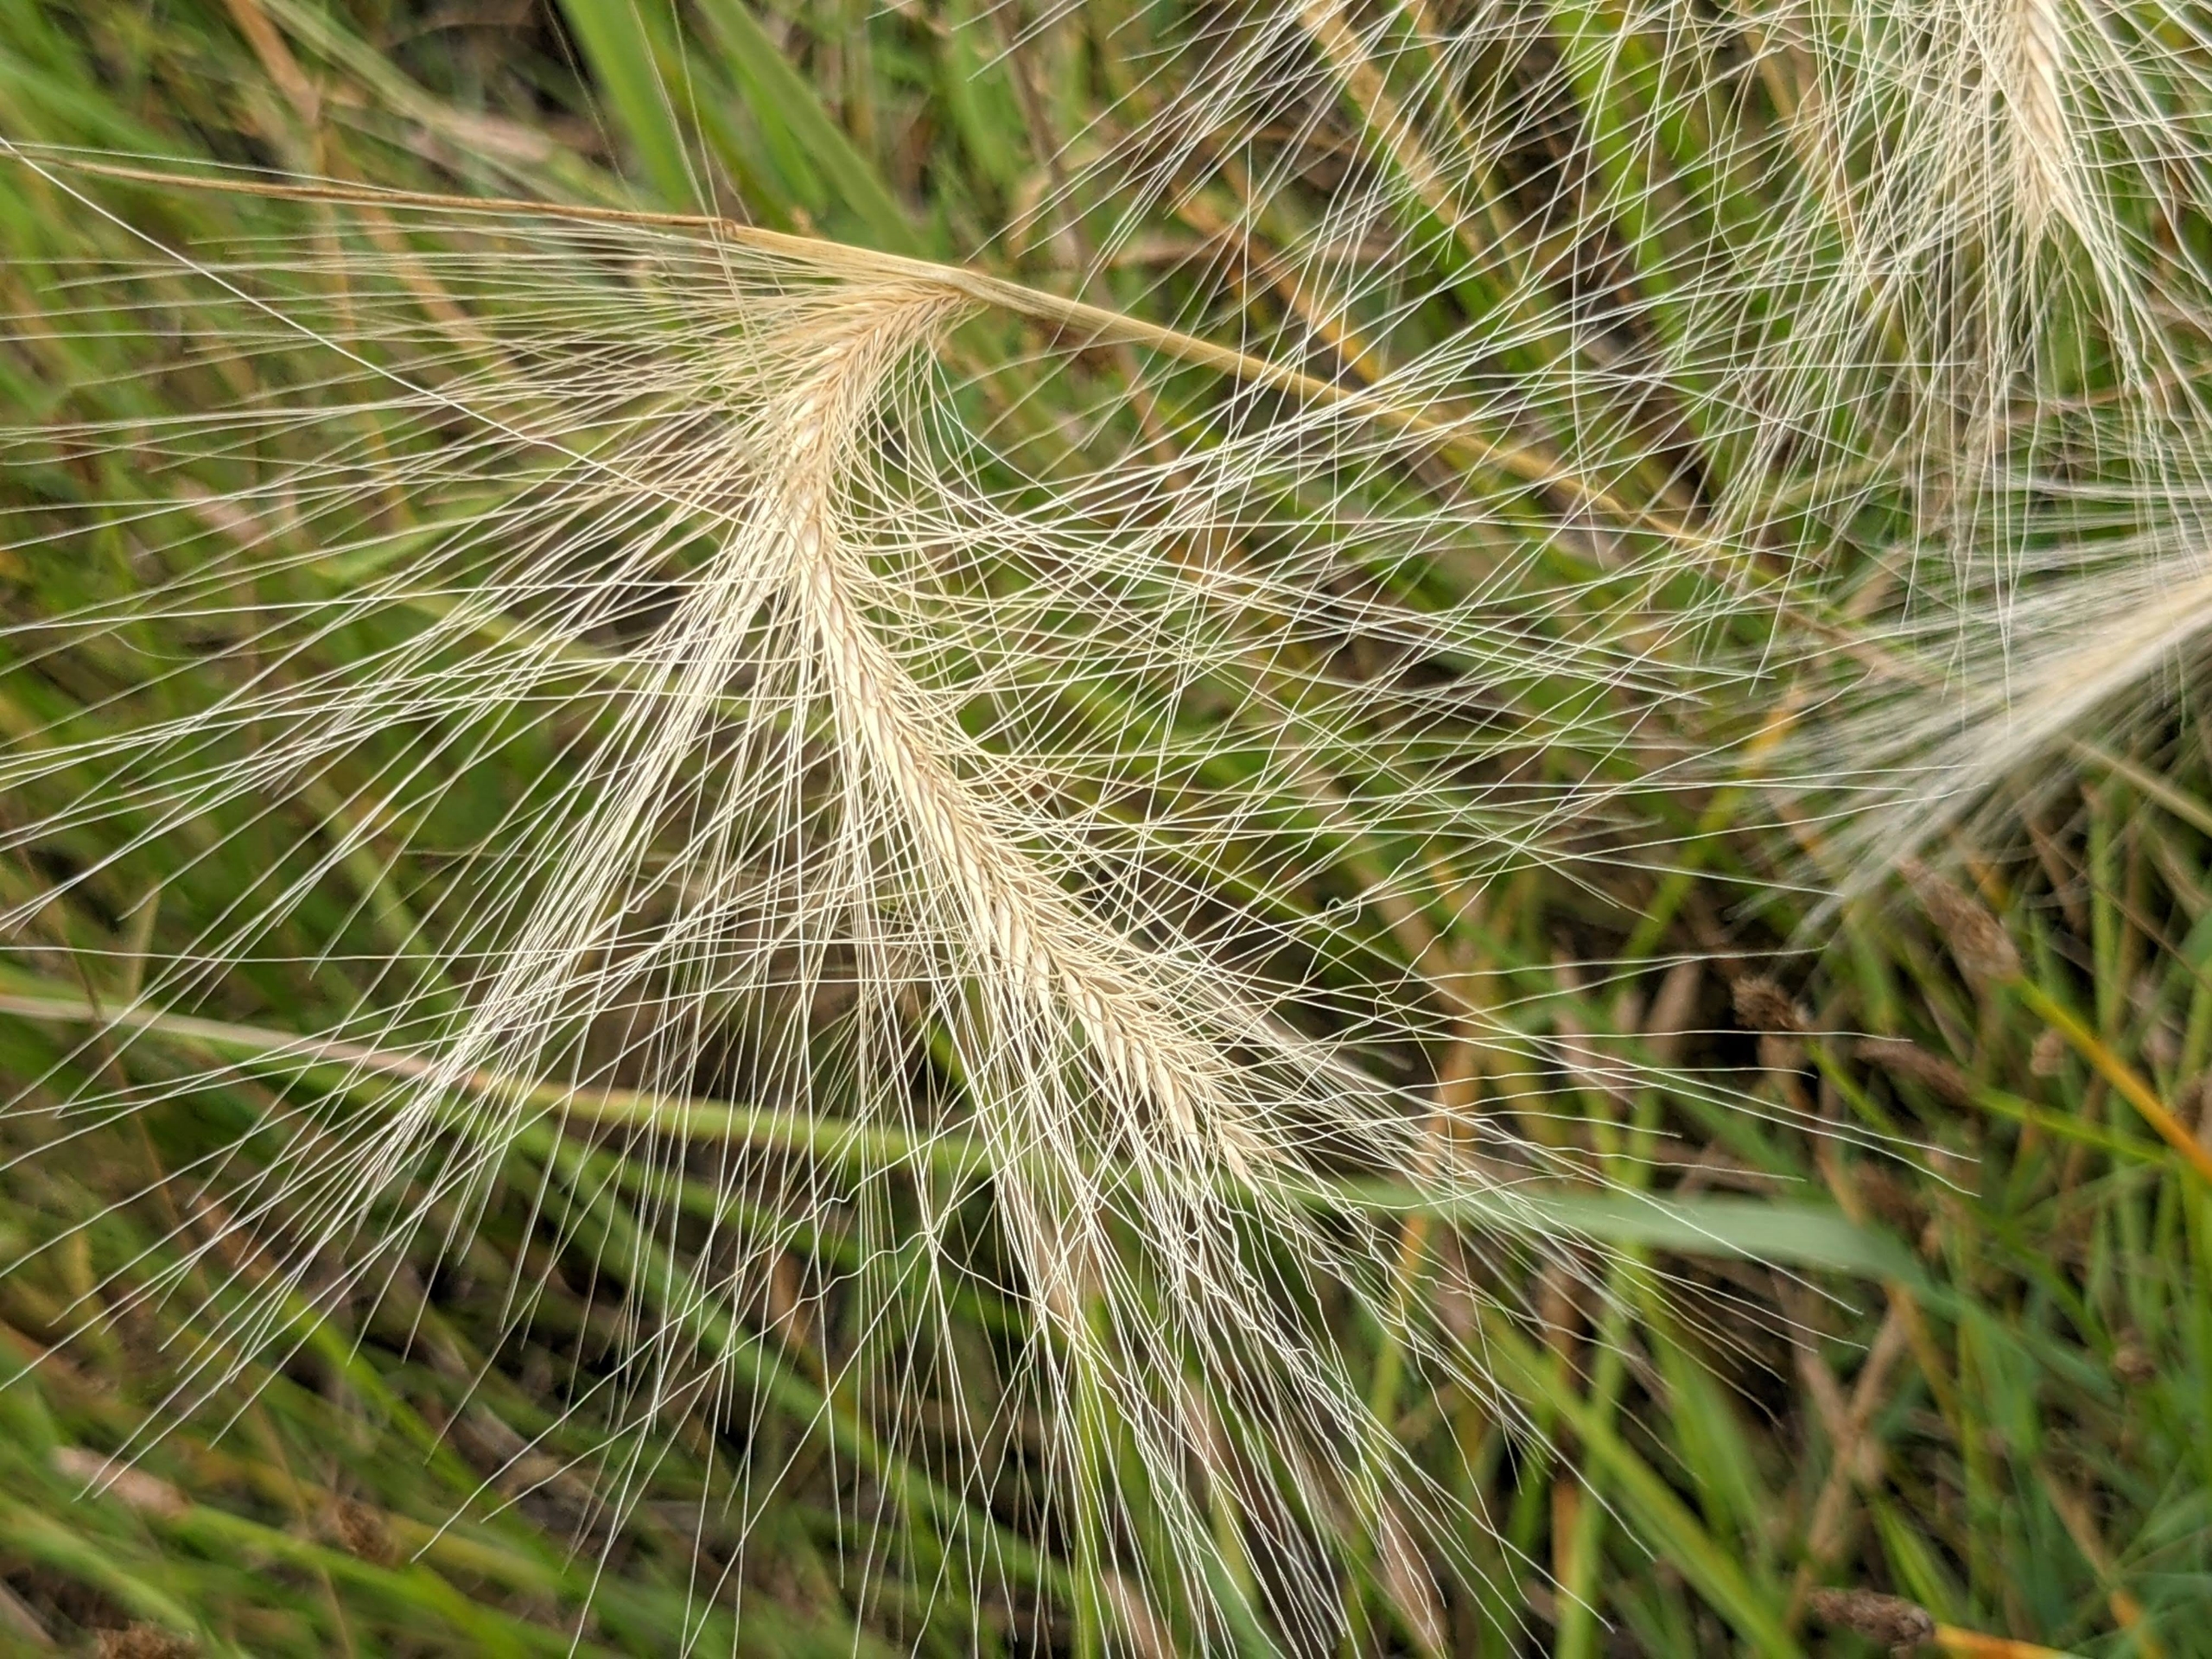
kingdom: Plantae
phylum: Tracheophyta
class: Liliopsida
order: Poales
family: Poaceae
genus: Hordeum
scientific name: Hordeum jubatum
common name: Egernhale-byg
